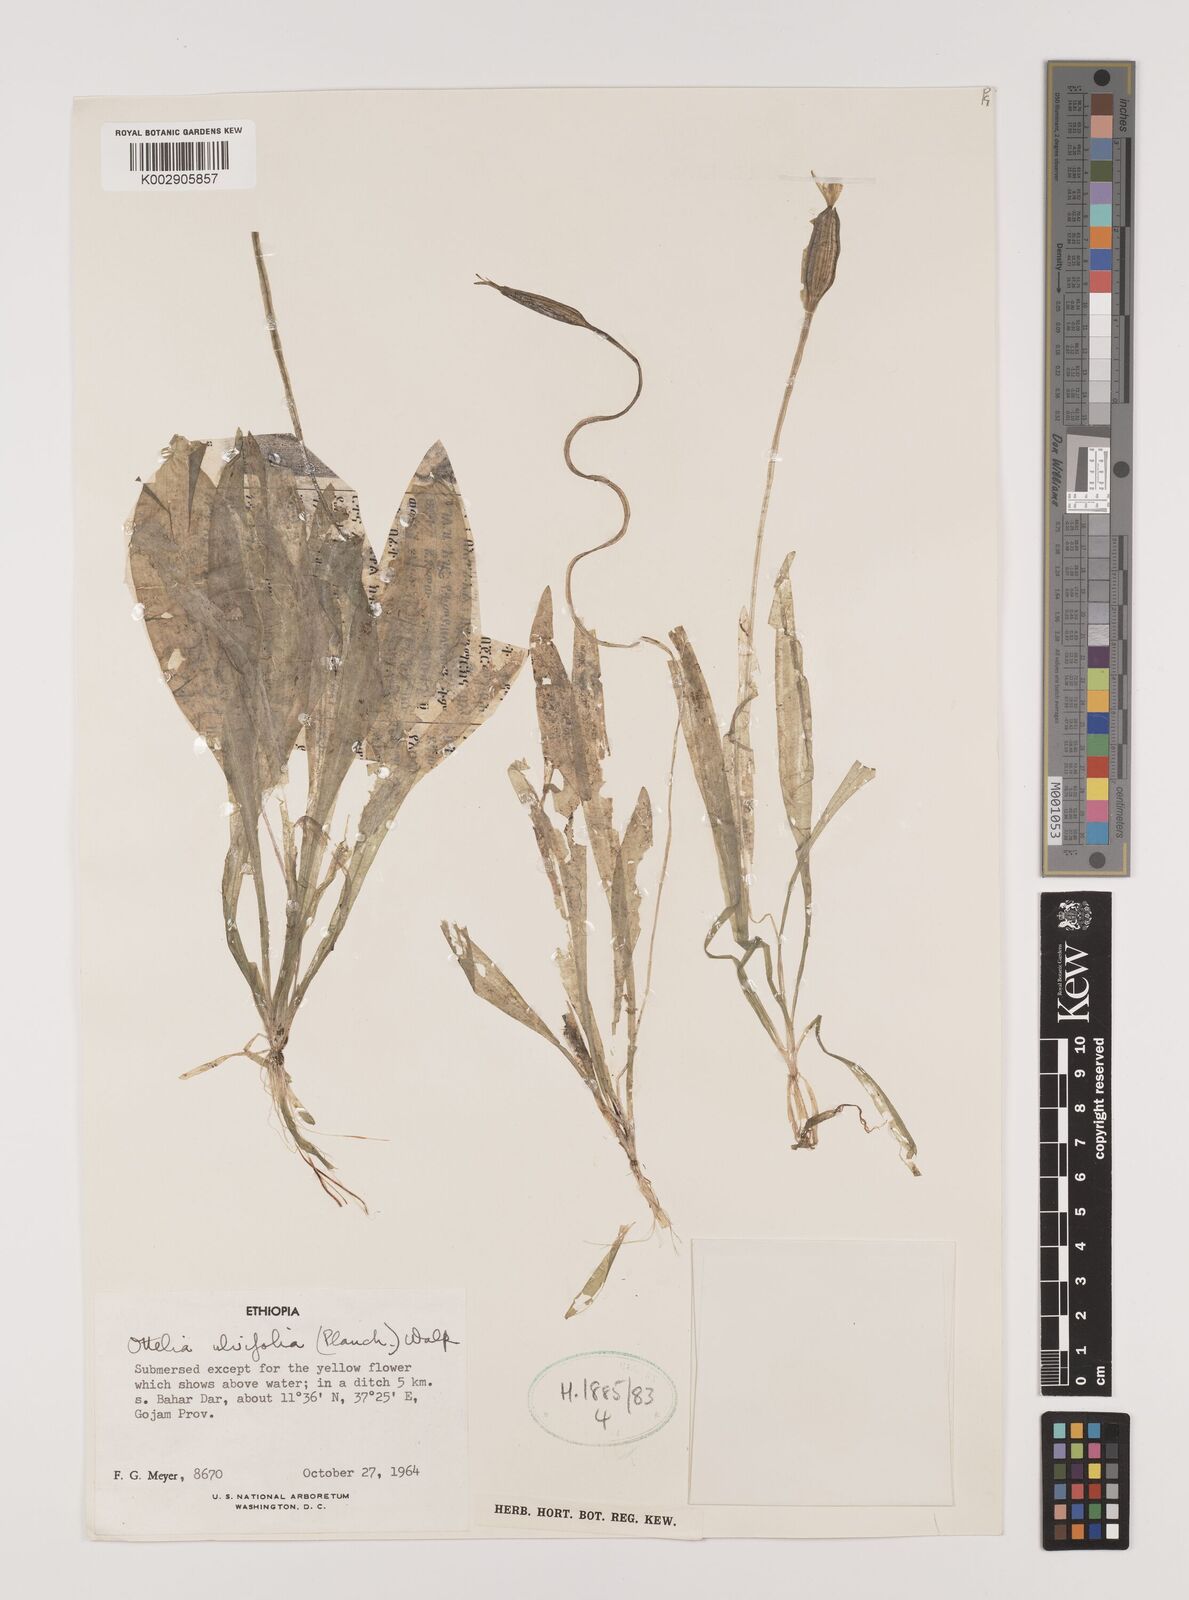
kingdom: Plantae
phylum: Tracheophyta
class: Liliopsida
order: Alismatales
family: Hydrocharitaceae
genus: Ottelia
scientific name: Ottelia ulvifolia
